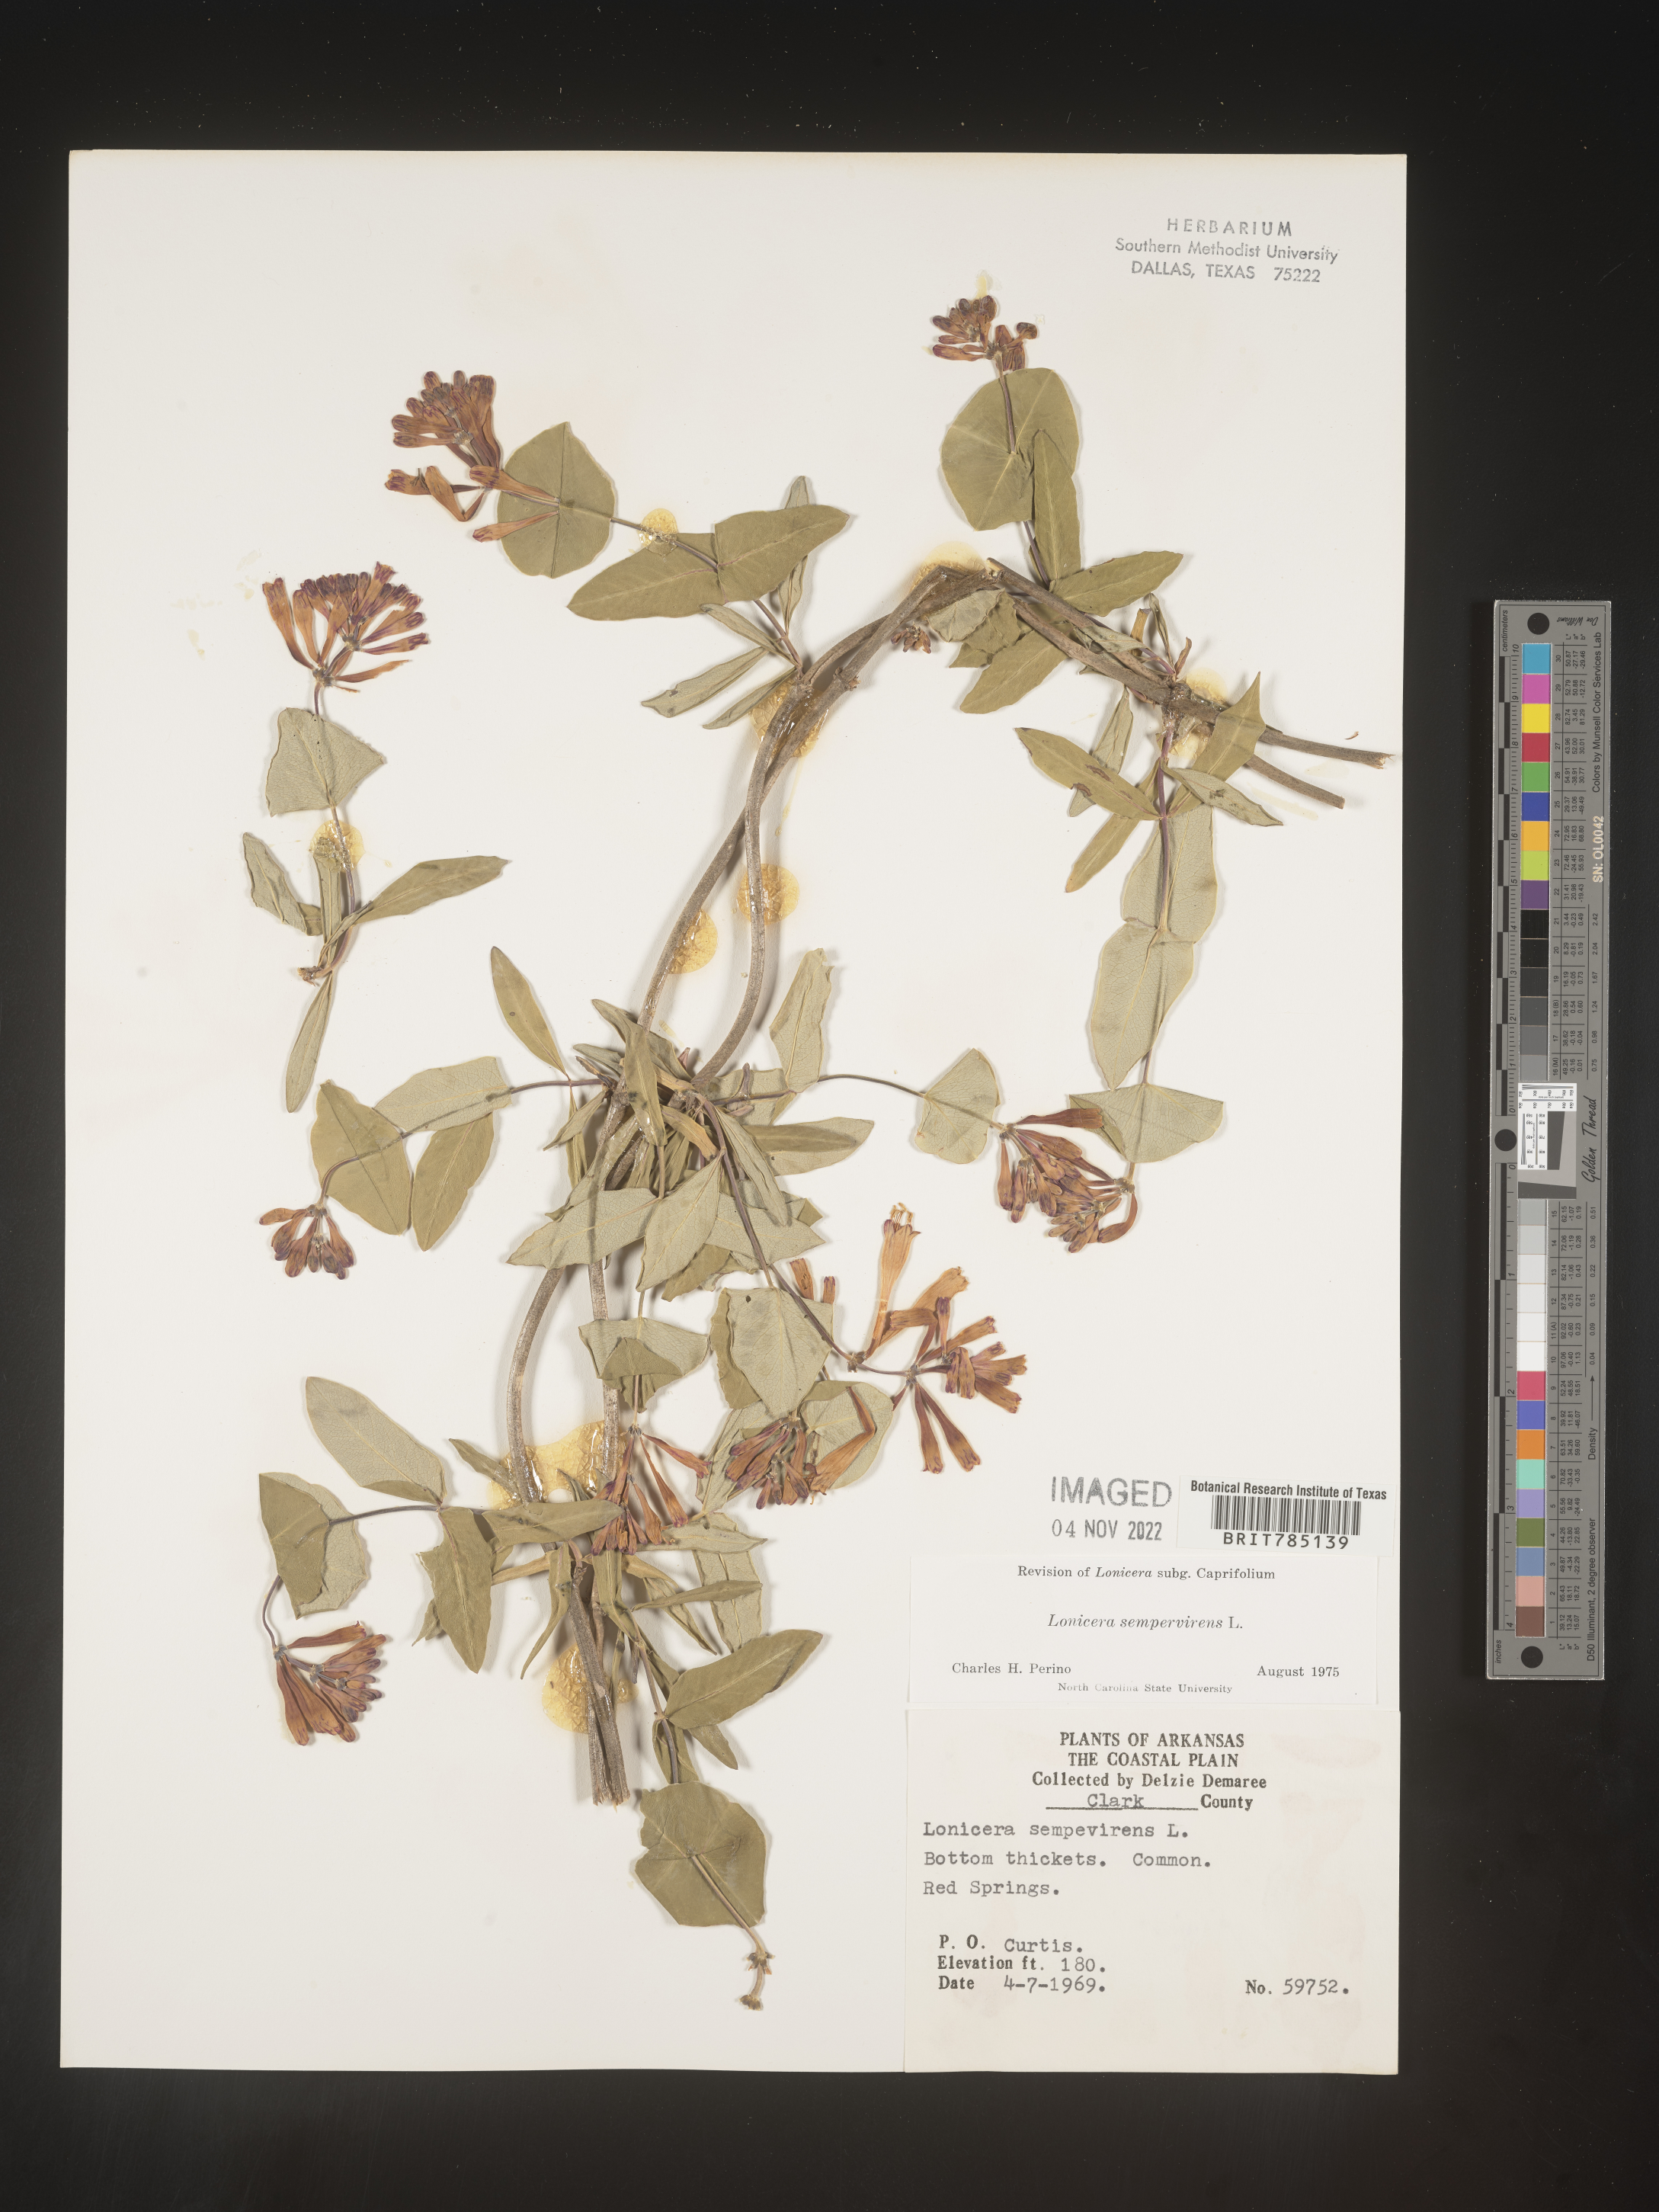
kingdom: Plantae
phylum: Tracheophyta
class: Magnoliopsida
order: Dipsacales
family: Caprifoliaceae
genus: Lonicera
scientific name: Lonicera sempervirens
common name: Coral honeysuckle
